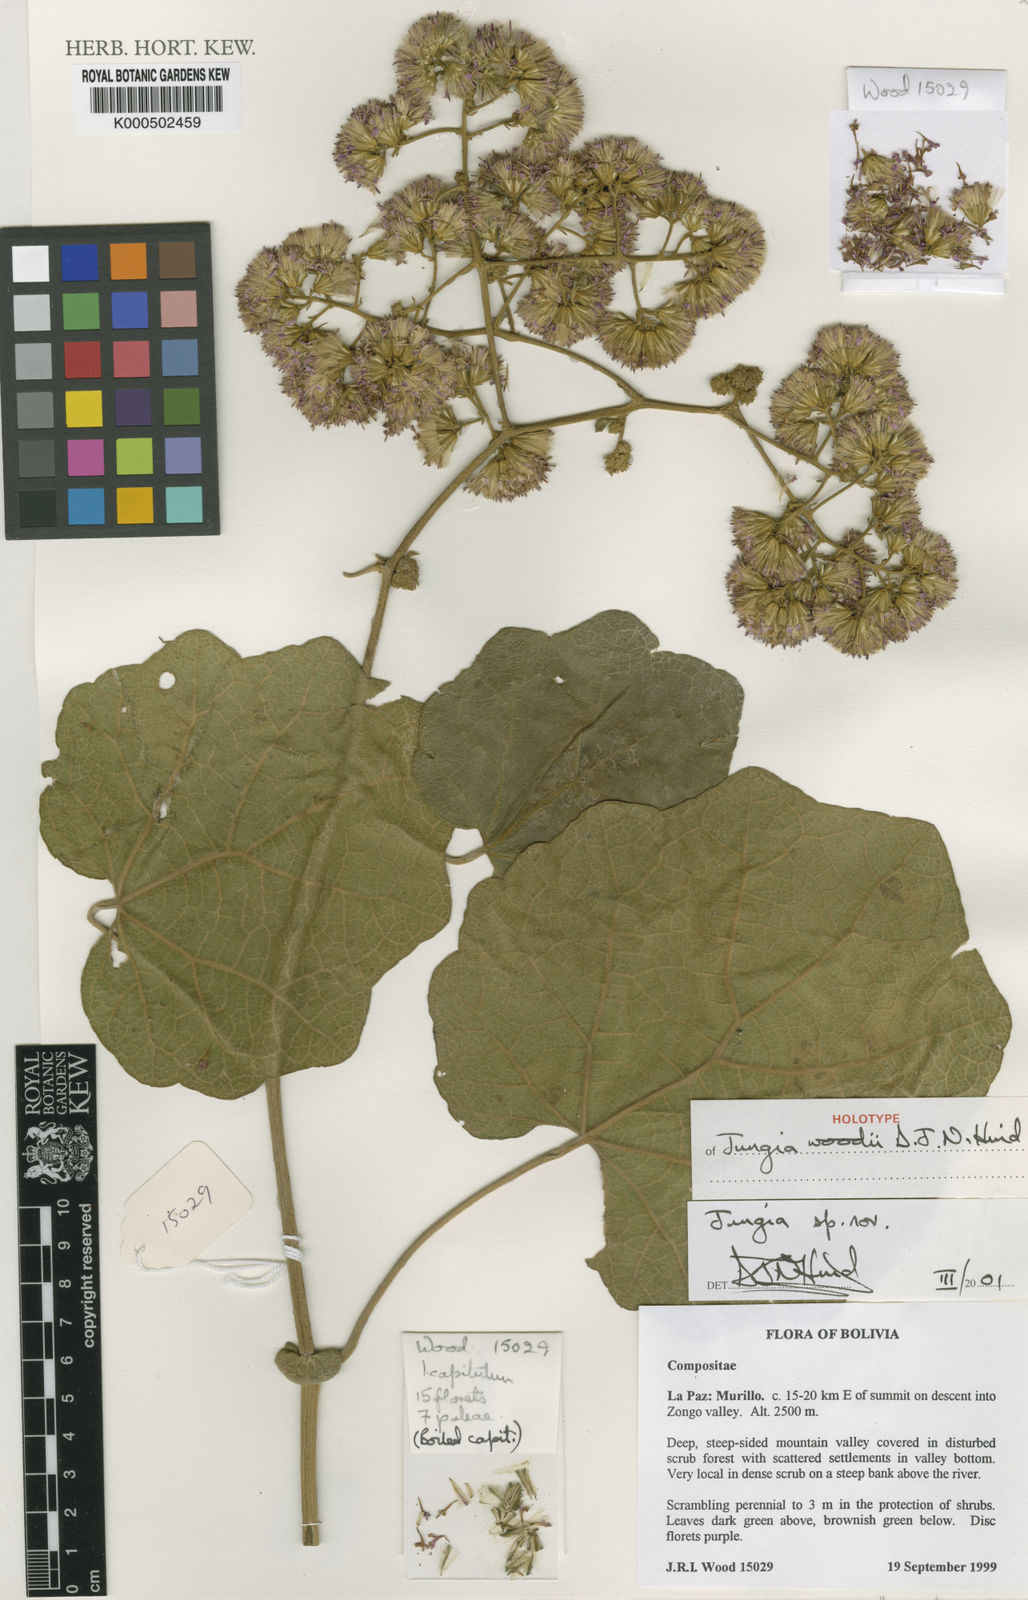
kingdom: Plantae
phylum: Tracheophyta
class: Magnoliopsida
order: Asterales
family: Asteraceae
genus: Jungia
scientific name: Jungia woodii
